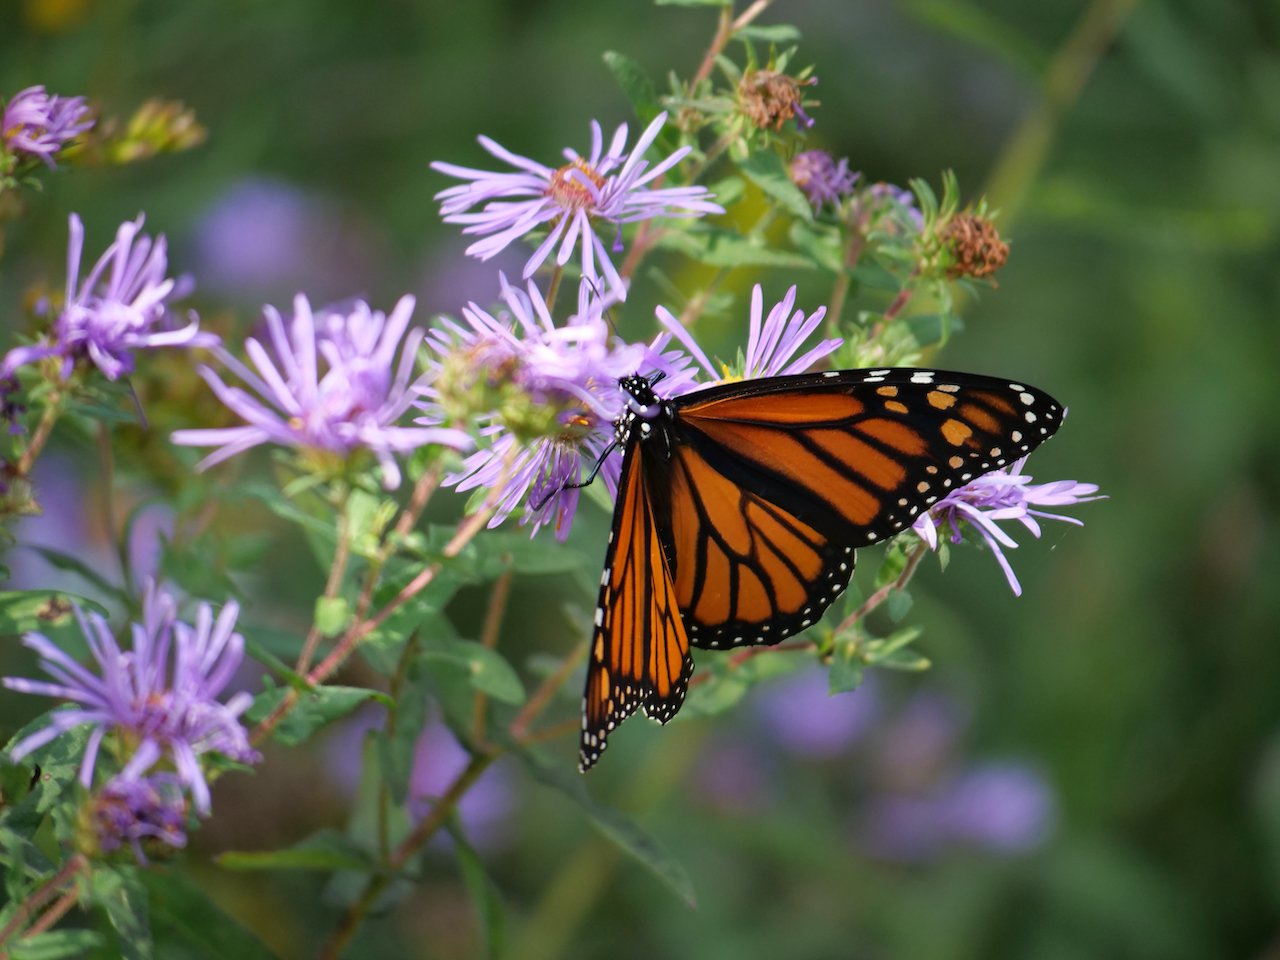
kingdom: Animalia
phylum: Arthropoda
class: Insecta
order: Lepidoptera
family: Nymphalidae
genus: Danaus
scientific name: Danaus plexippus
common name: Monarch
